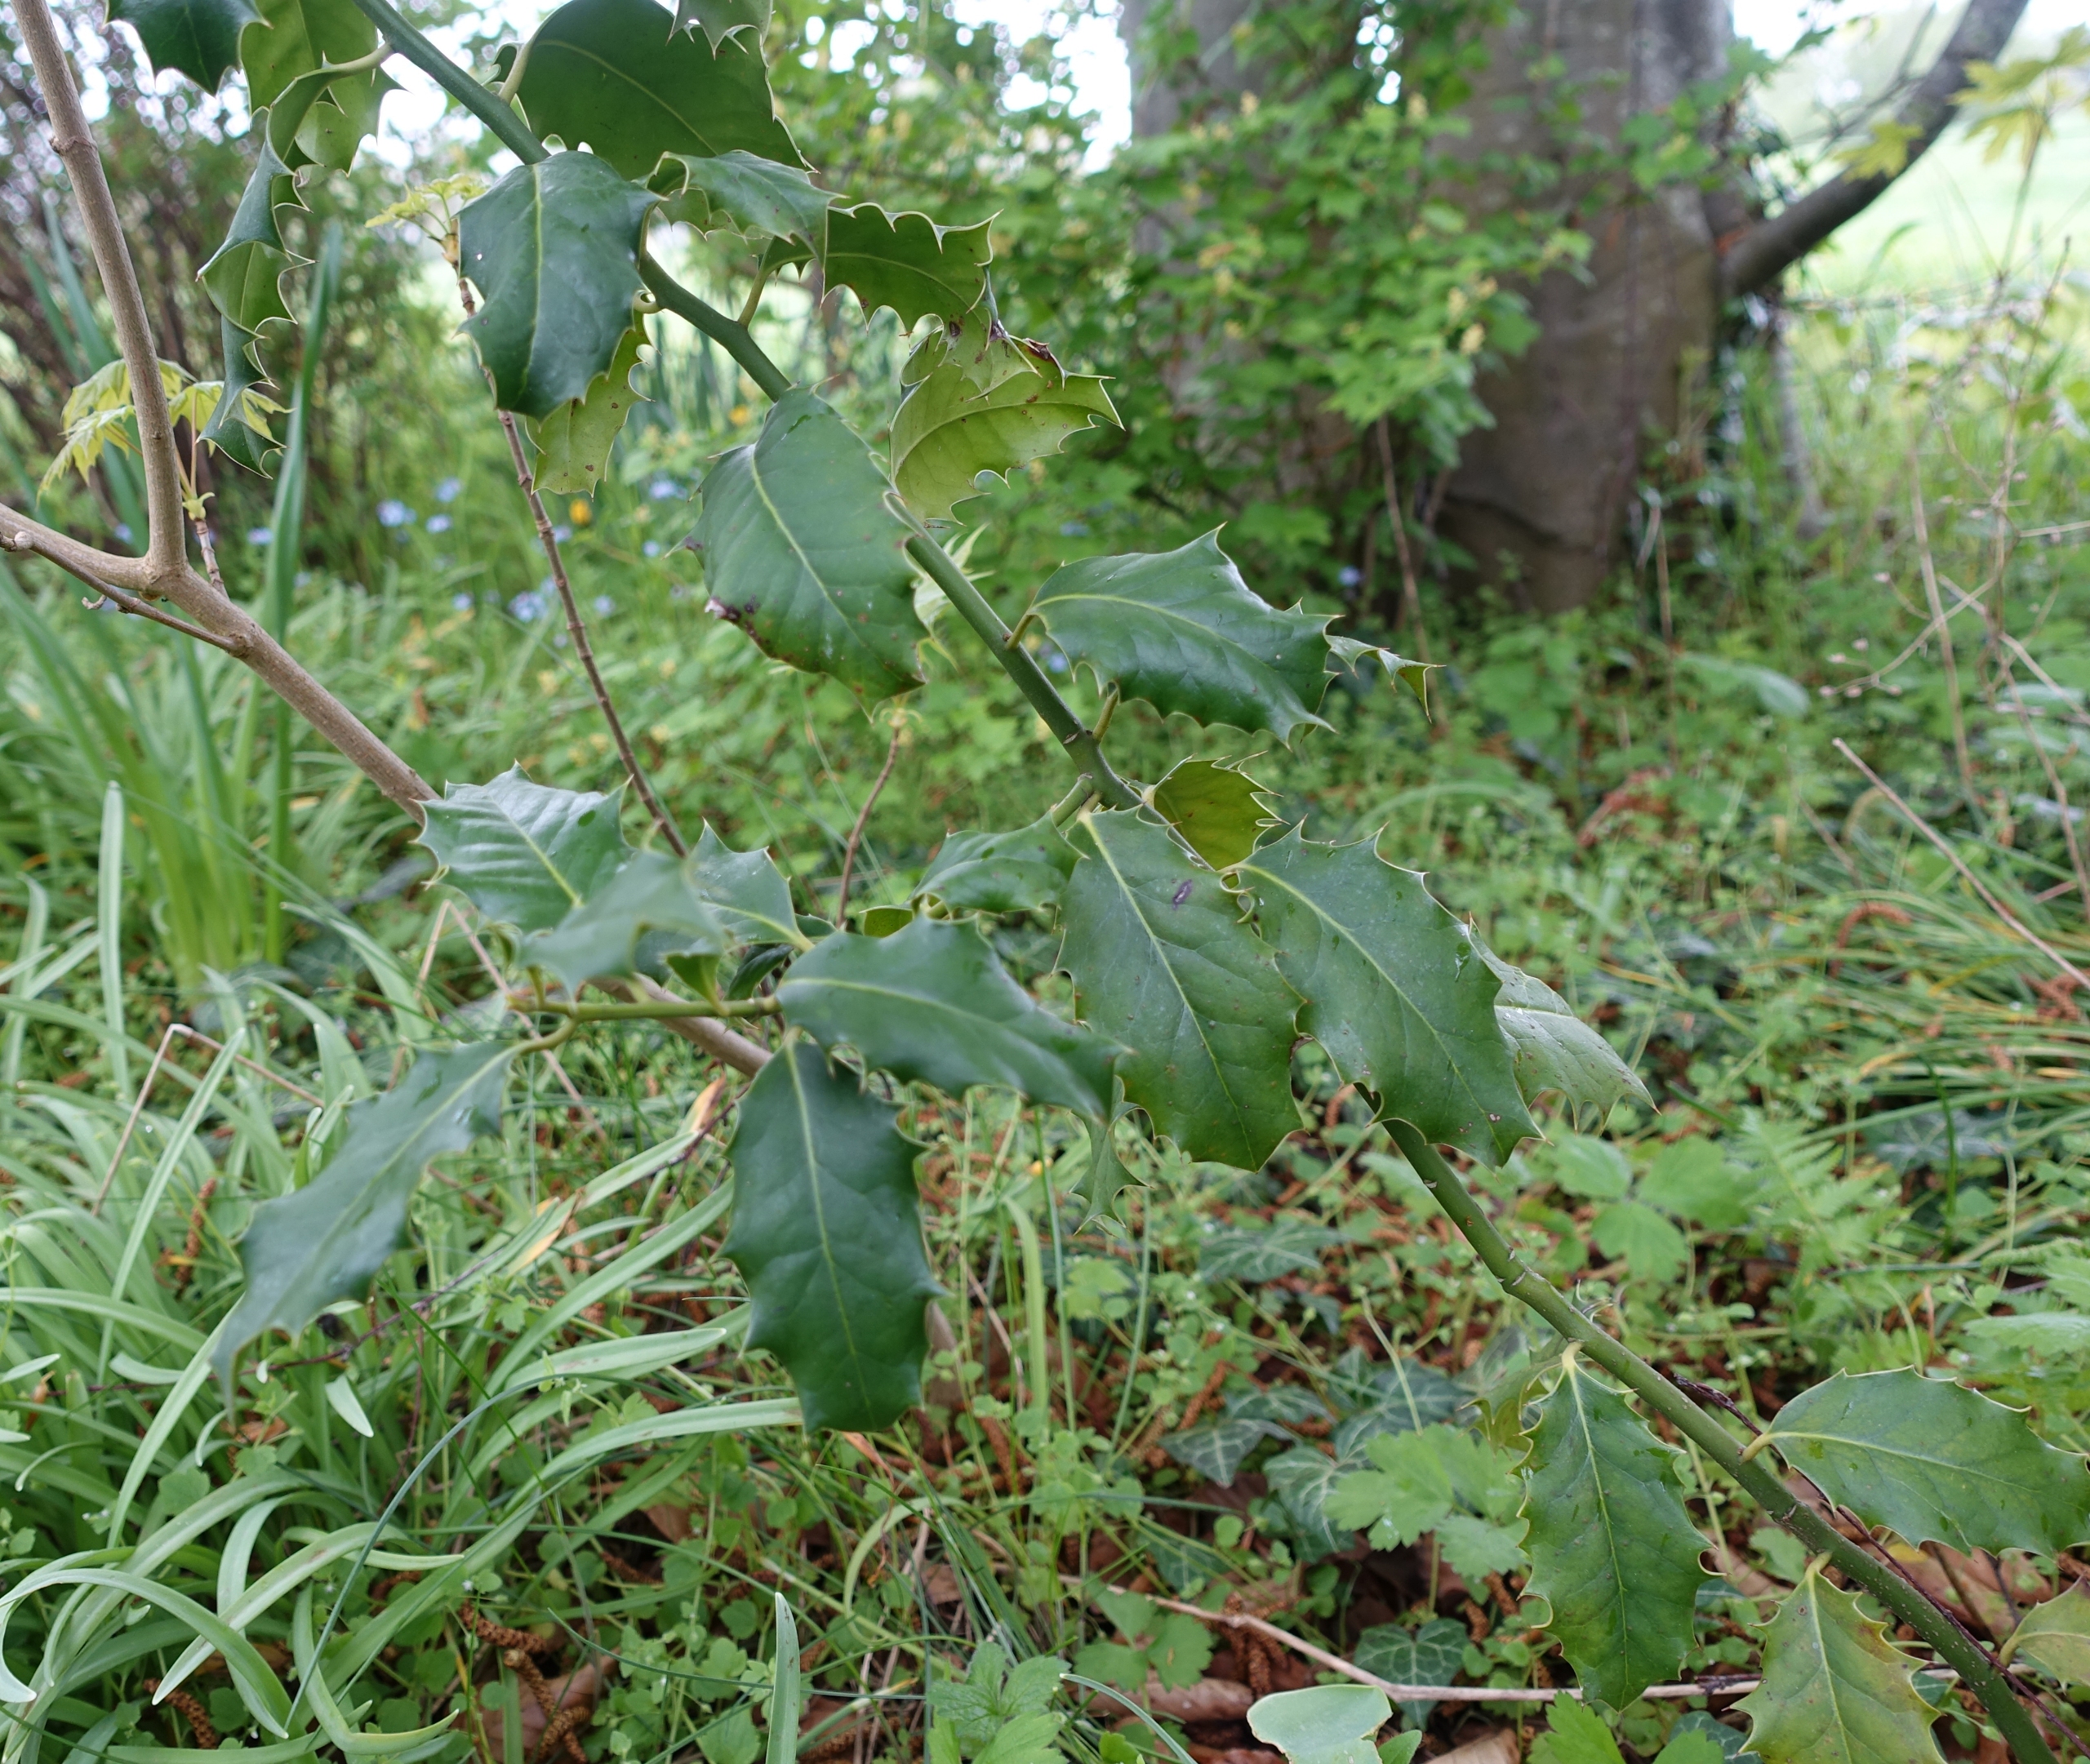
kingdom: Plantae
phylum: Tracheophyta
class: Magnoliopsida
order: Aquifoliales
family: Aquifoliaceae
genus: Ilex
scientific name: Ilex aquifolium
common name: Kristtorn
